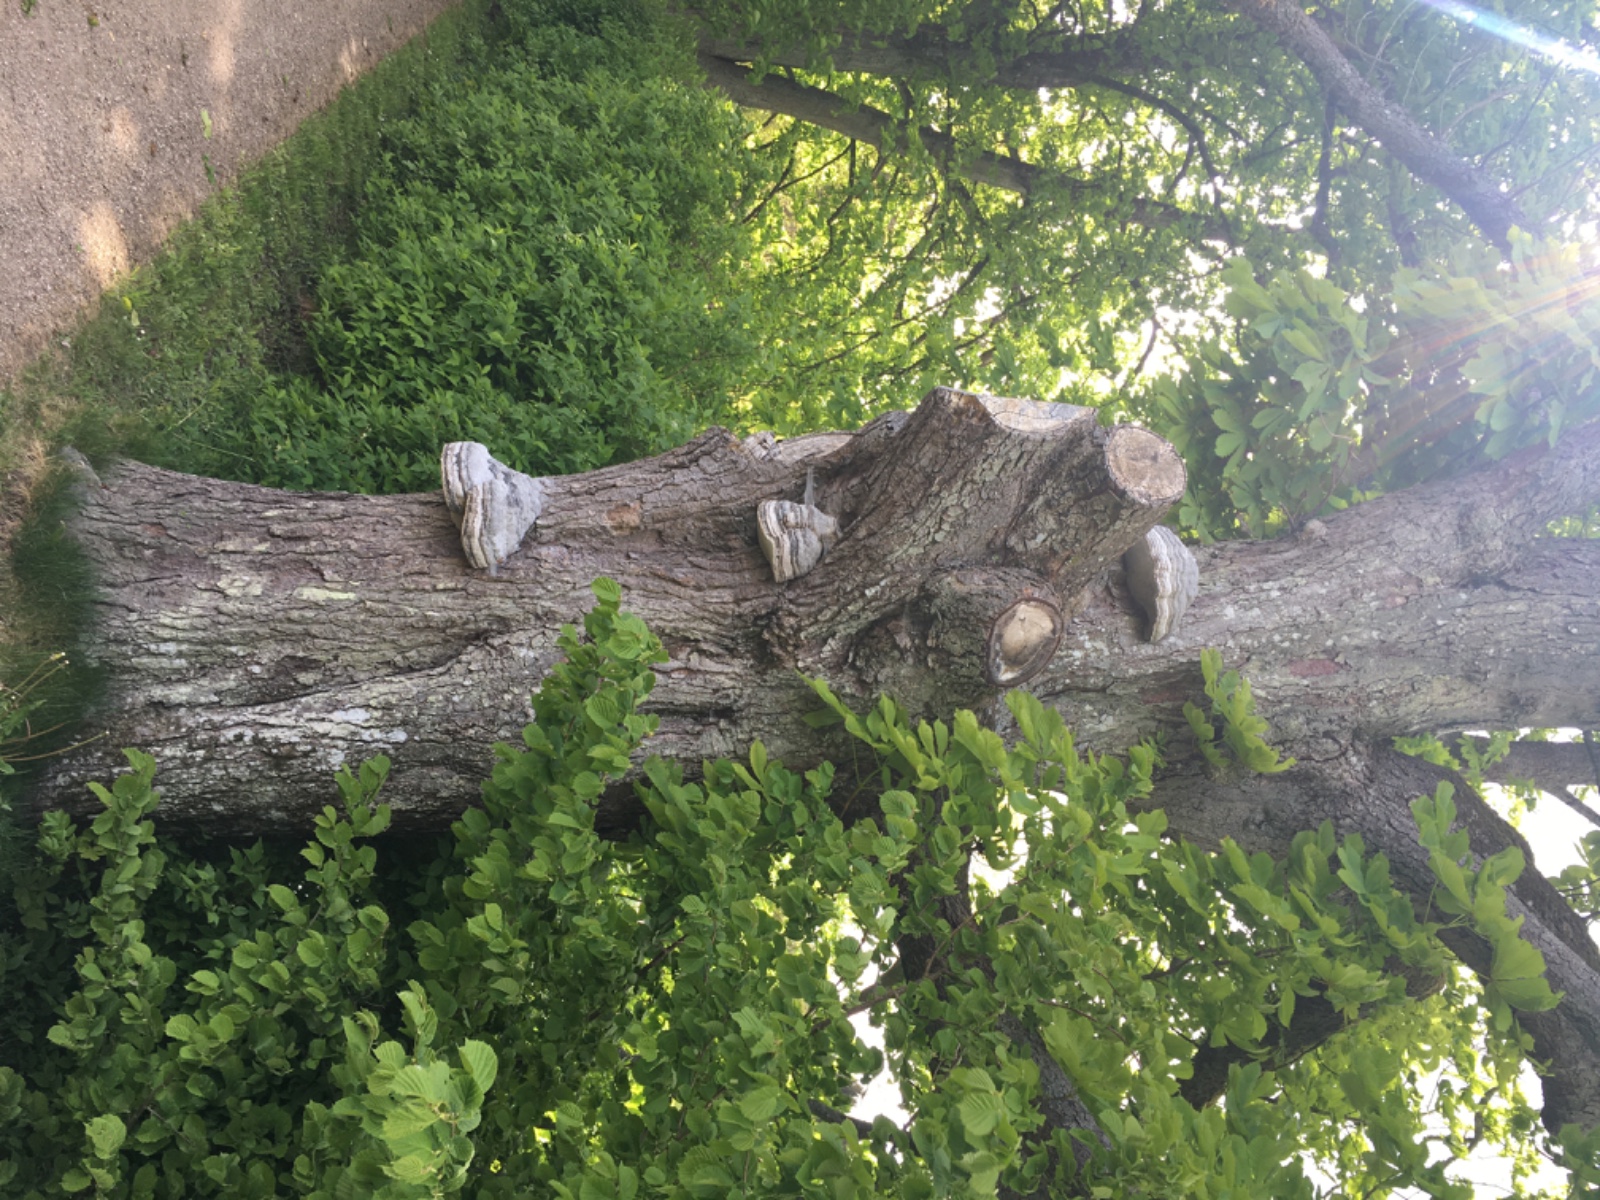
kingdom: Fungi
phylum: Basidiomycota
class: Agaricomycetes
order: Polyporales
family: Polyporaceae
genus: Fomes
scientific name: Fomes fomentarius
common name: tøndersvamp
